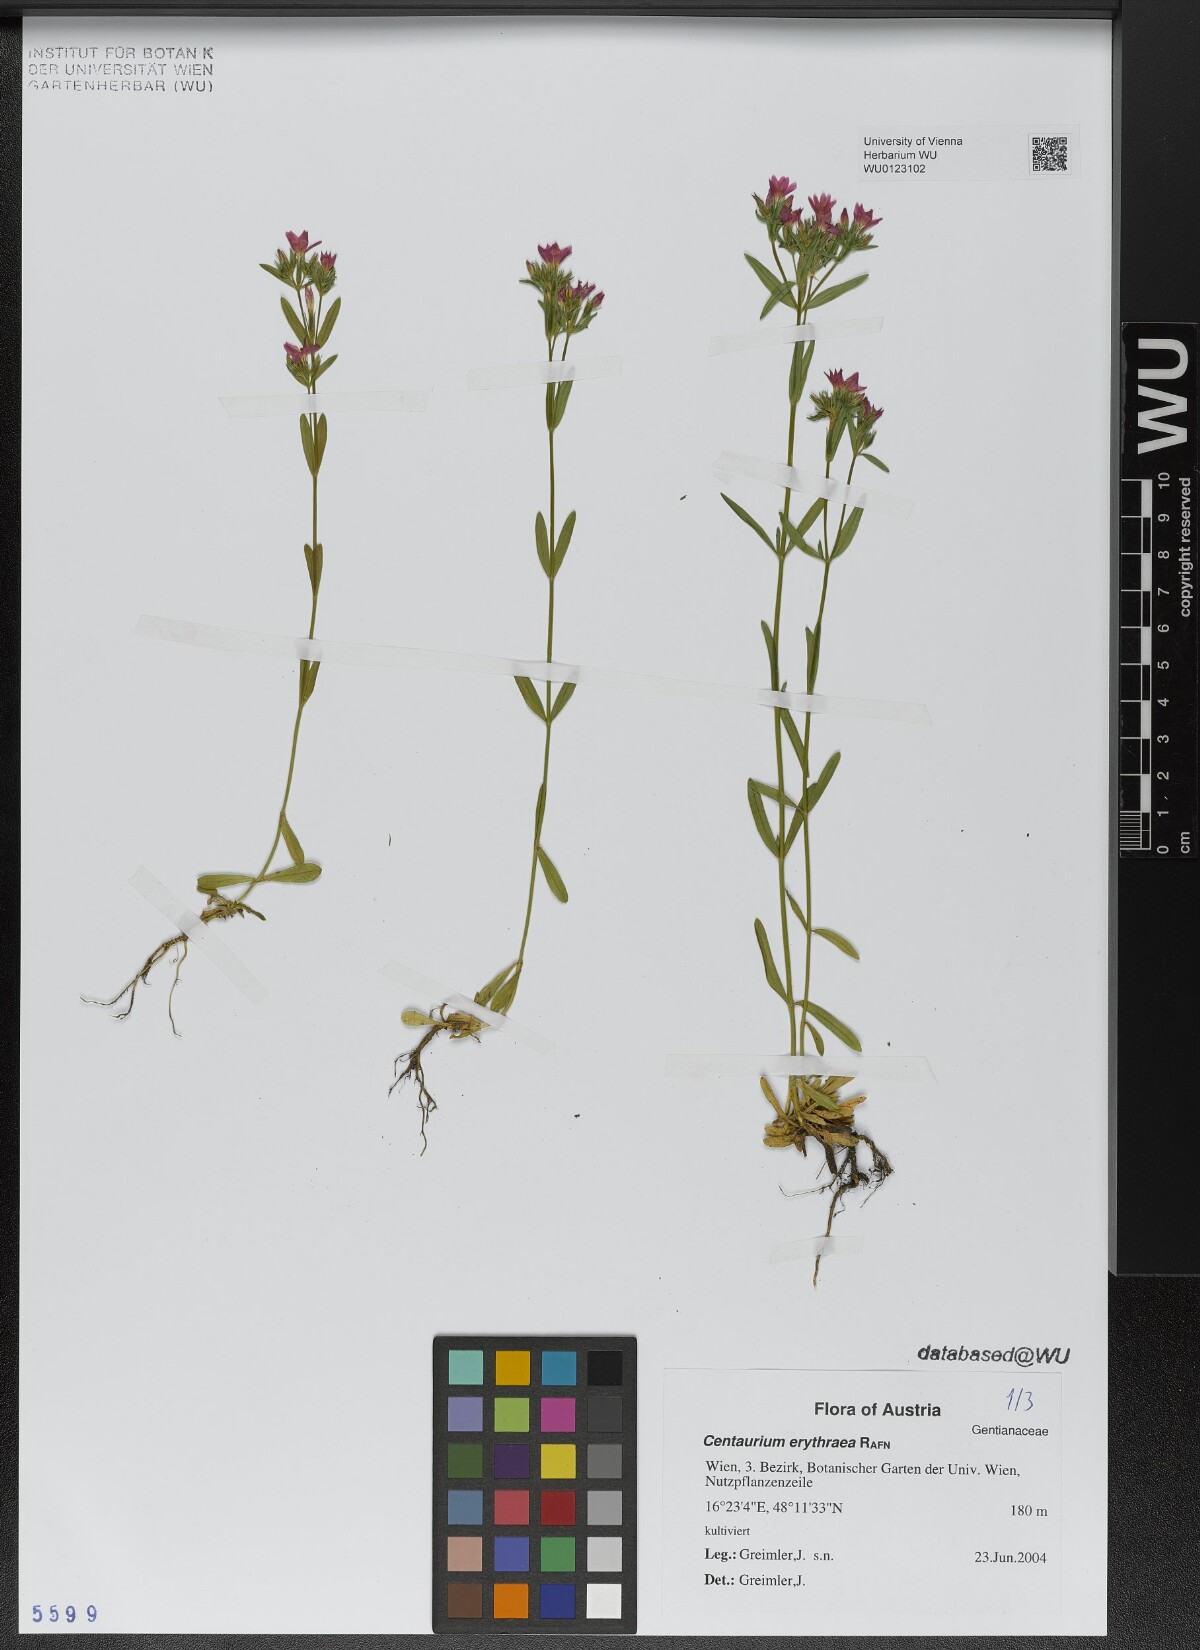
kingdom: Plantae
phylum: Tracheophyta
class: Magnoliopsida
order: Gentianales
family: Gentianaceae
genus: Centaurium
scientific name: Centaurium erythraea
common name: Common centaury
